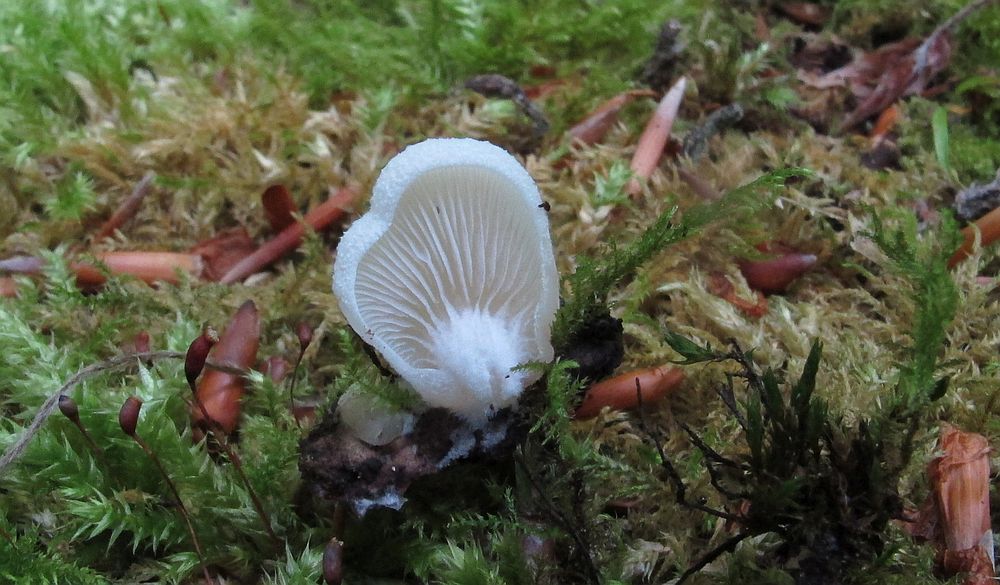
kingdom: Fungi
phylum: Basidiomycota
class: Agaricomycetes
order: Agaricales
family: Crepidotaceae
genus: Crepidotus
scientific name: Crepidotus mollis
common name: blød muslingesvamp
